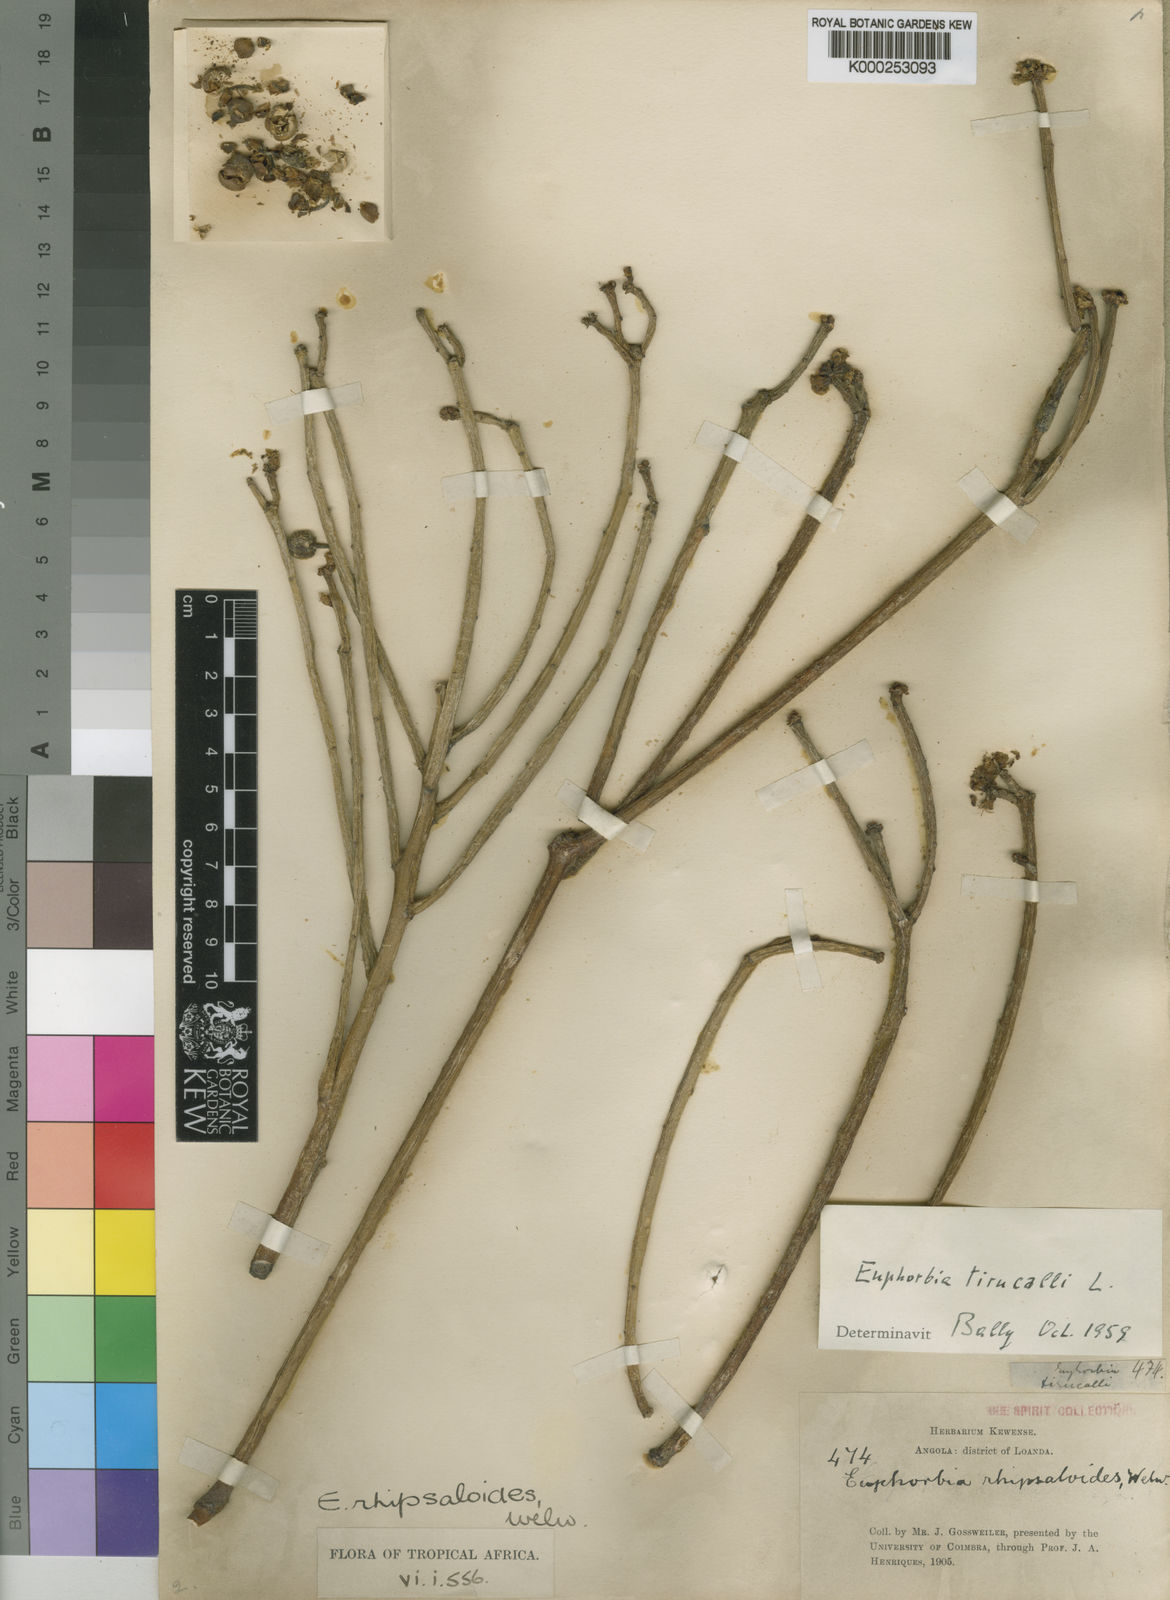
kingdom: Plantae
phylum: Tracheophyta
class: Magnoliopsida
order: Malpighiales
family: Euphorbiaceae
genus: Euphorbia
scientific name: Euphorbia tirucalli
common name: Indiantree spurge
